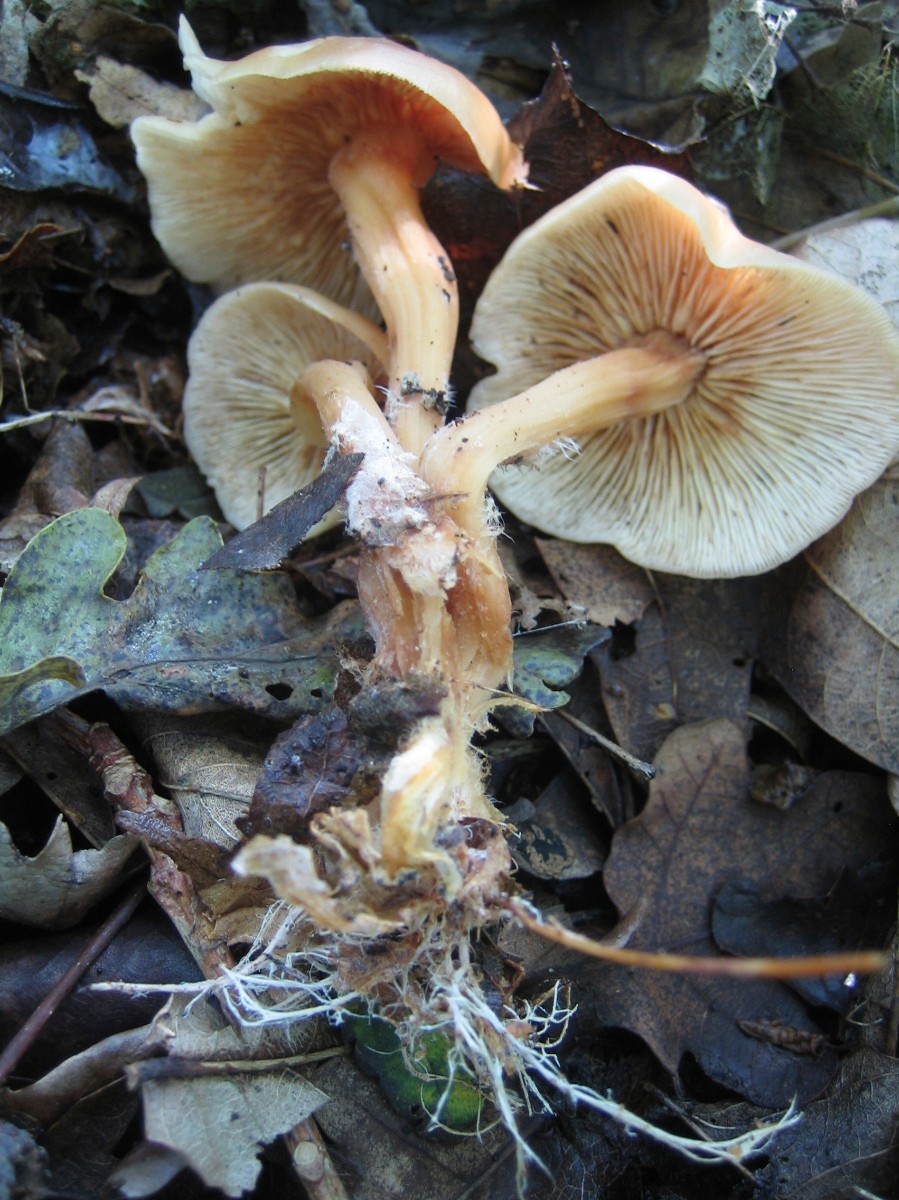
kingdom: Fungi
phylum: Basidiomycota
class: Agaricomycetes
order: Agaricales
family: Omphalotaceae
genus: Collybiopsis
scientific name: Collybiopsis peronata
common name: bestøvlet fladhat
